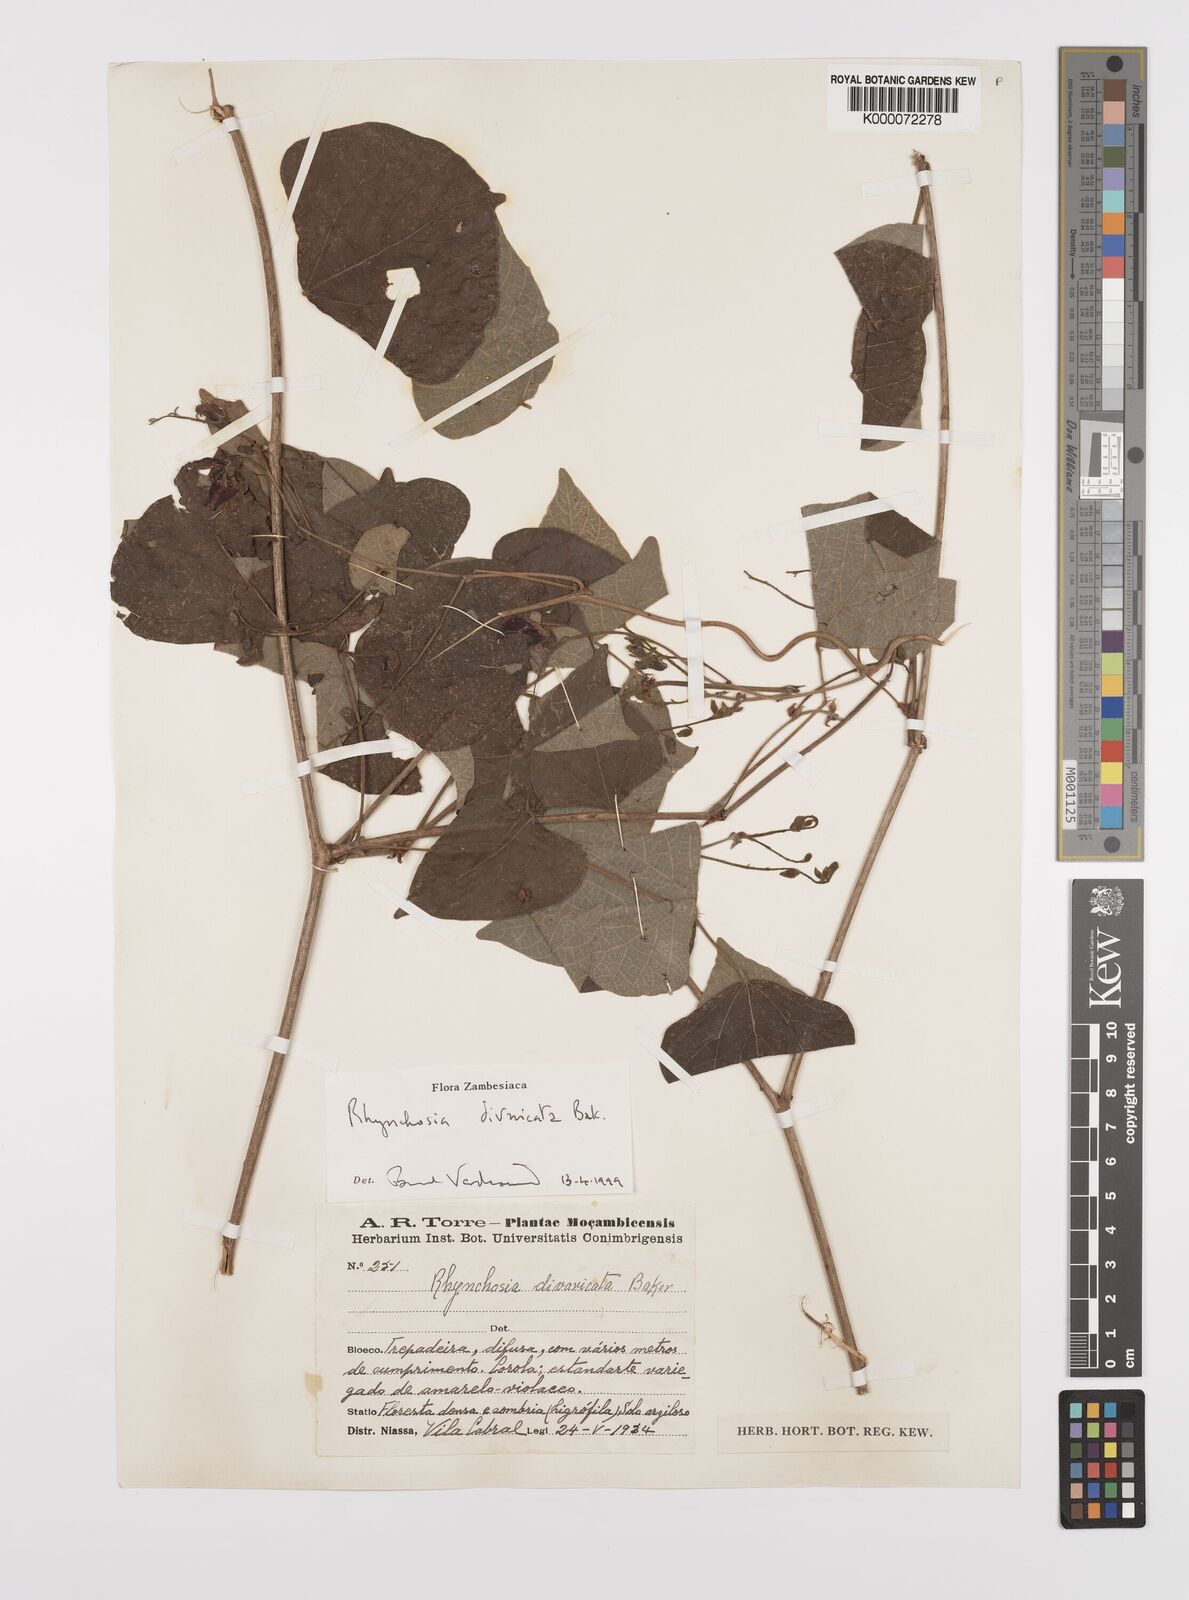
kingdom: Plantae
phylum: Tracheophyta
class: Magnoliopsida
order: Fabales
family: Fabaceae
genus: Rhynchosia
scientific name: Rhynchosia divaricata
